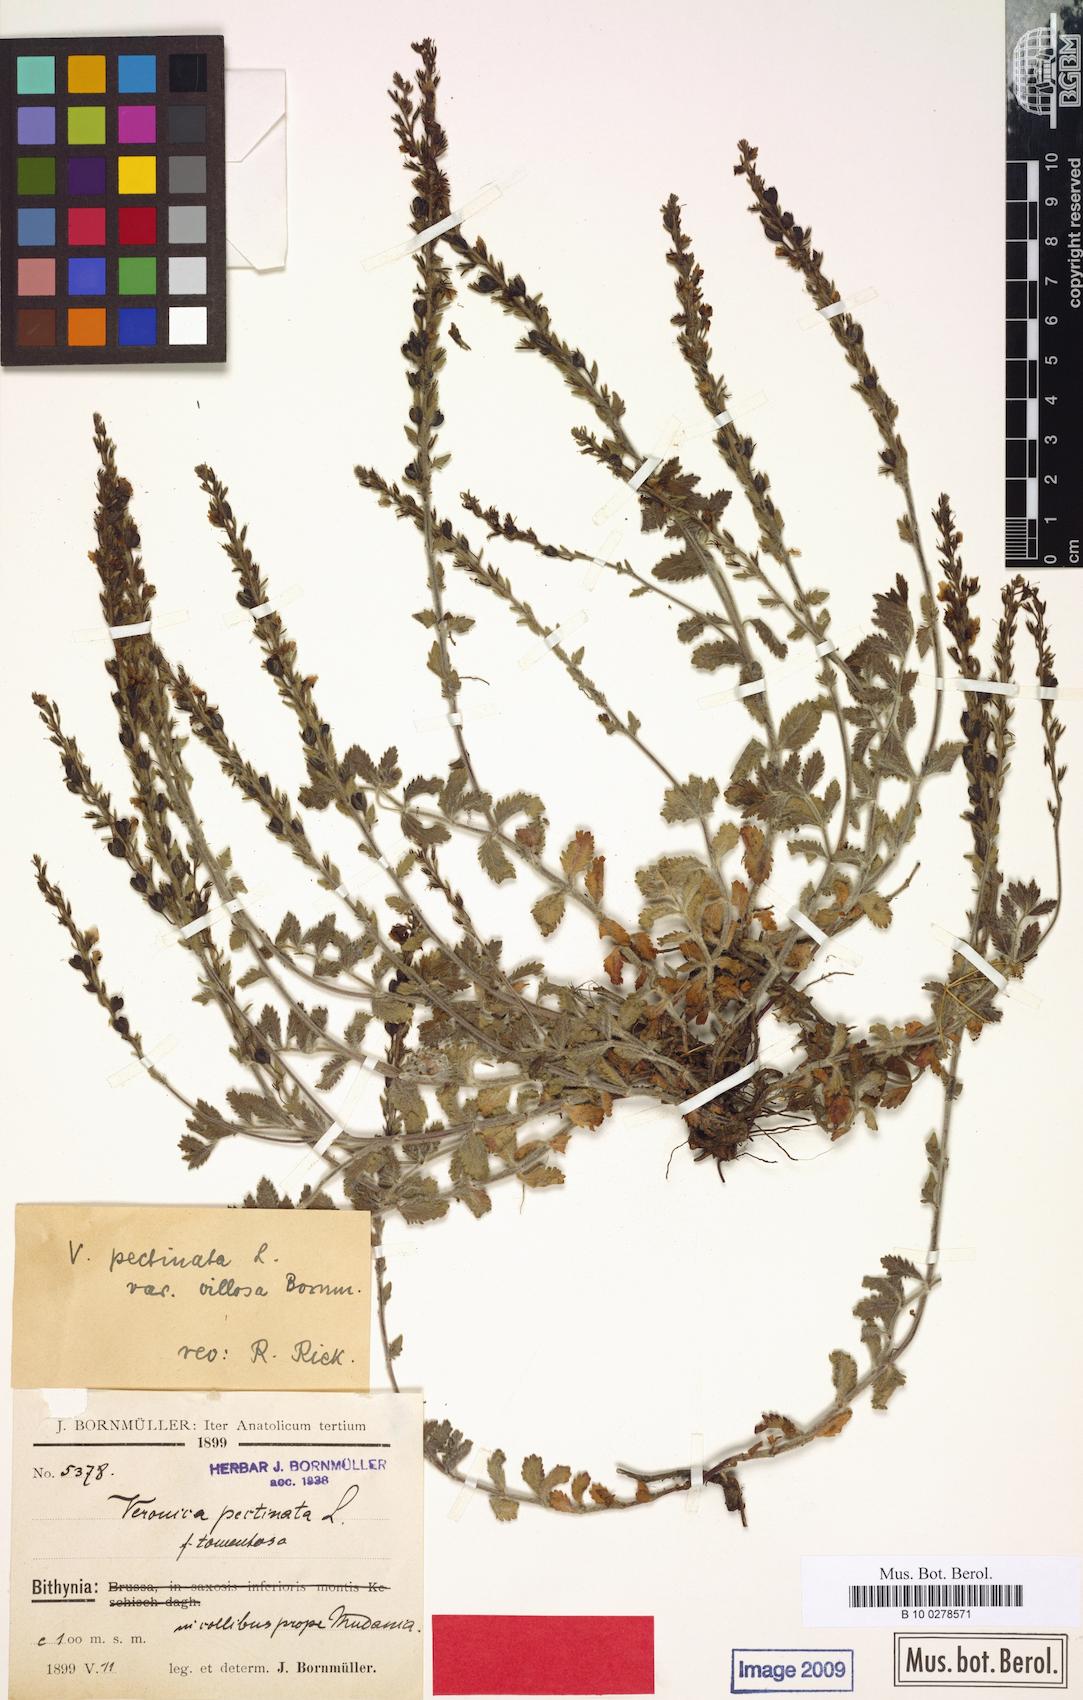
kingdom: Plantae
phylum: Tracheophyta
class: Magnoliopsida
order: Lamiales
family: Plantaginaceae
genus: Veronica
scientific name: Veronica pectinata
